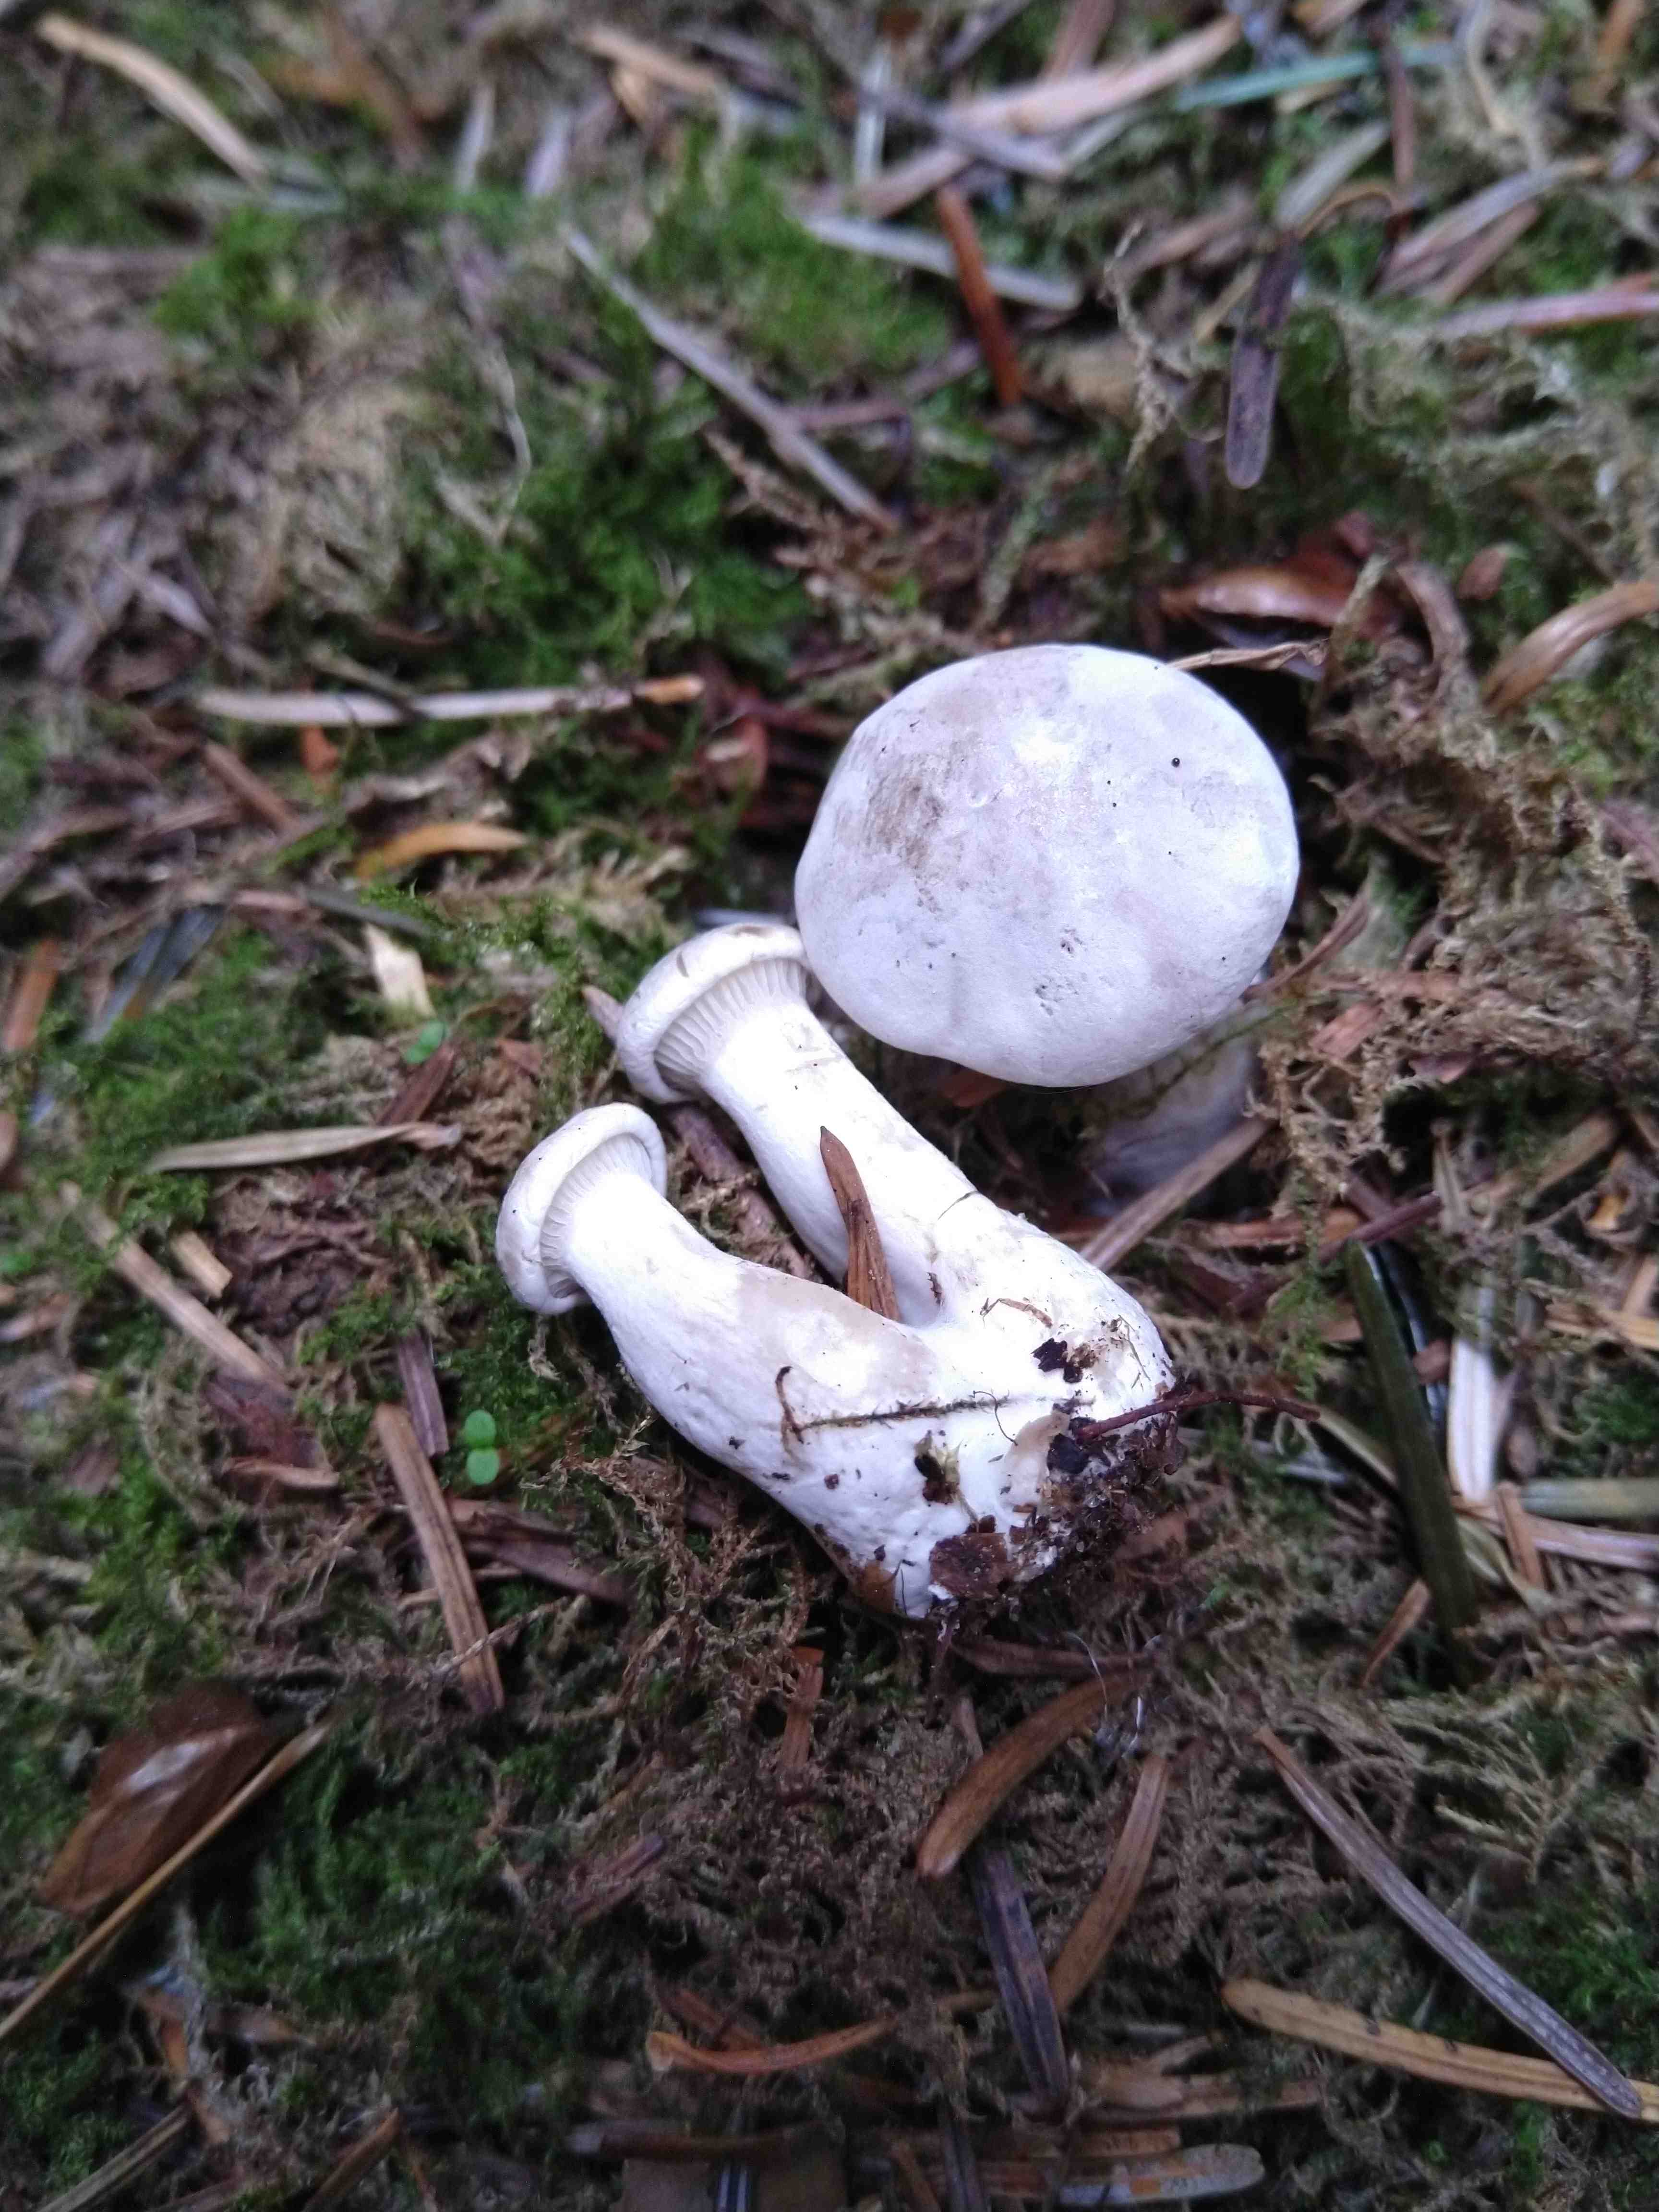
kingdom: Fungi
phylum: Basidiomycota
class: Agaricomycetes
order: Agaricales
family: Entolomataceae
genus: Clitopilus
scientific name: Clitopilus prunulus
